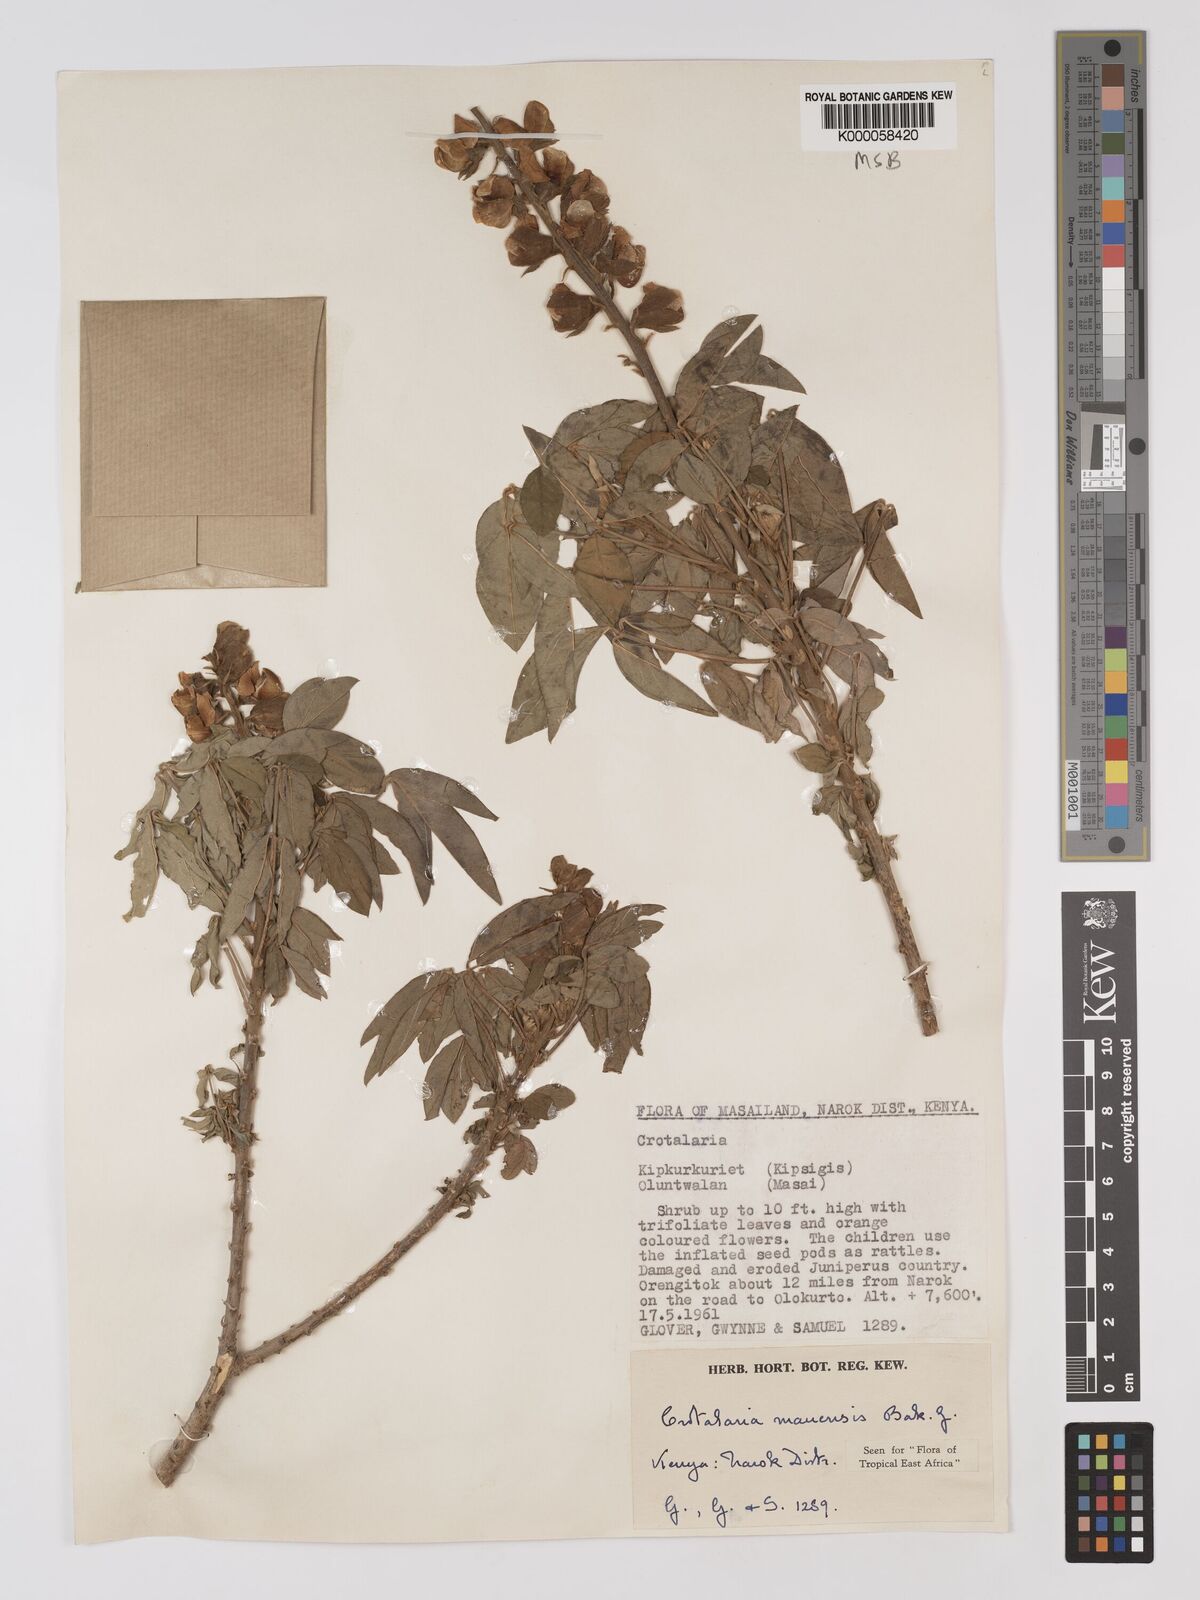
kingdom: Plantae
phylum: Tracheophyta
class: Magnoliopsida
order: Fabales
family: Fabaceae
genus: Crotalaria
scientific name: Crotalaria mauensis
